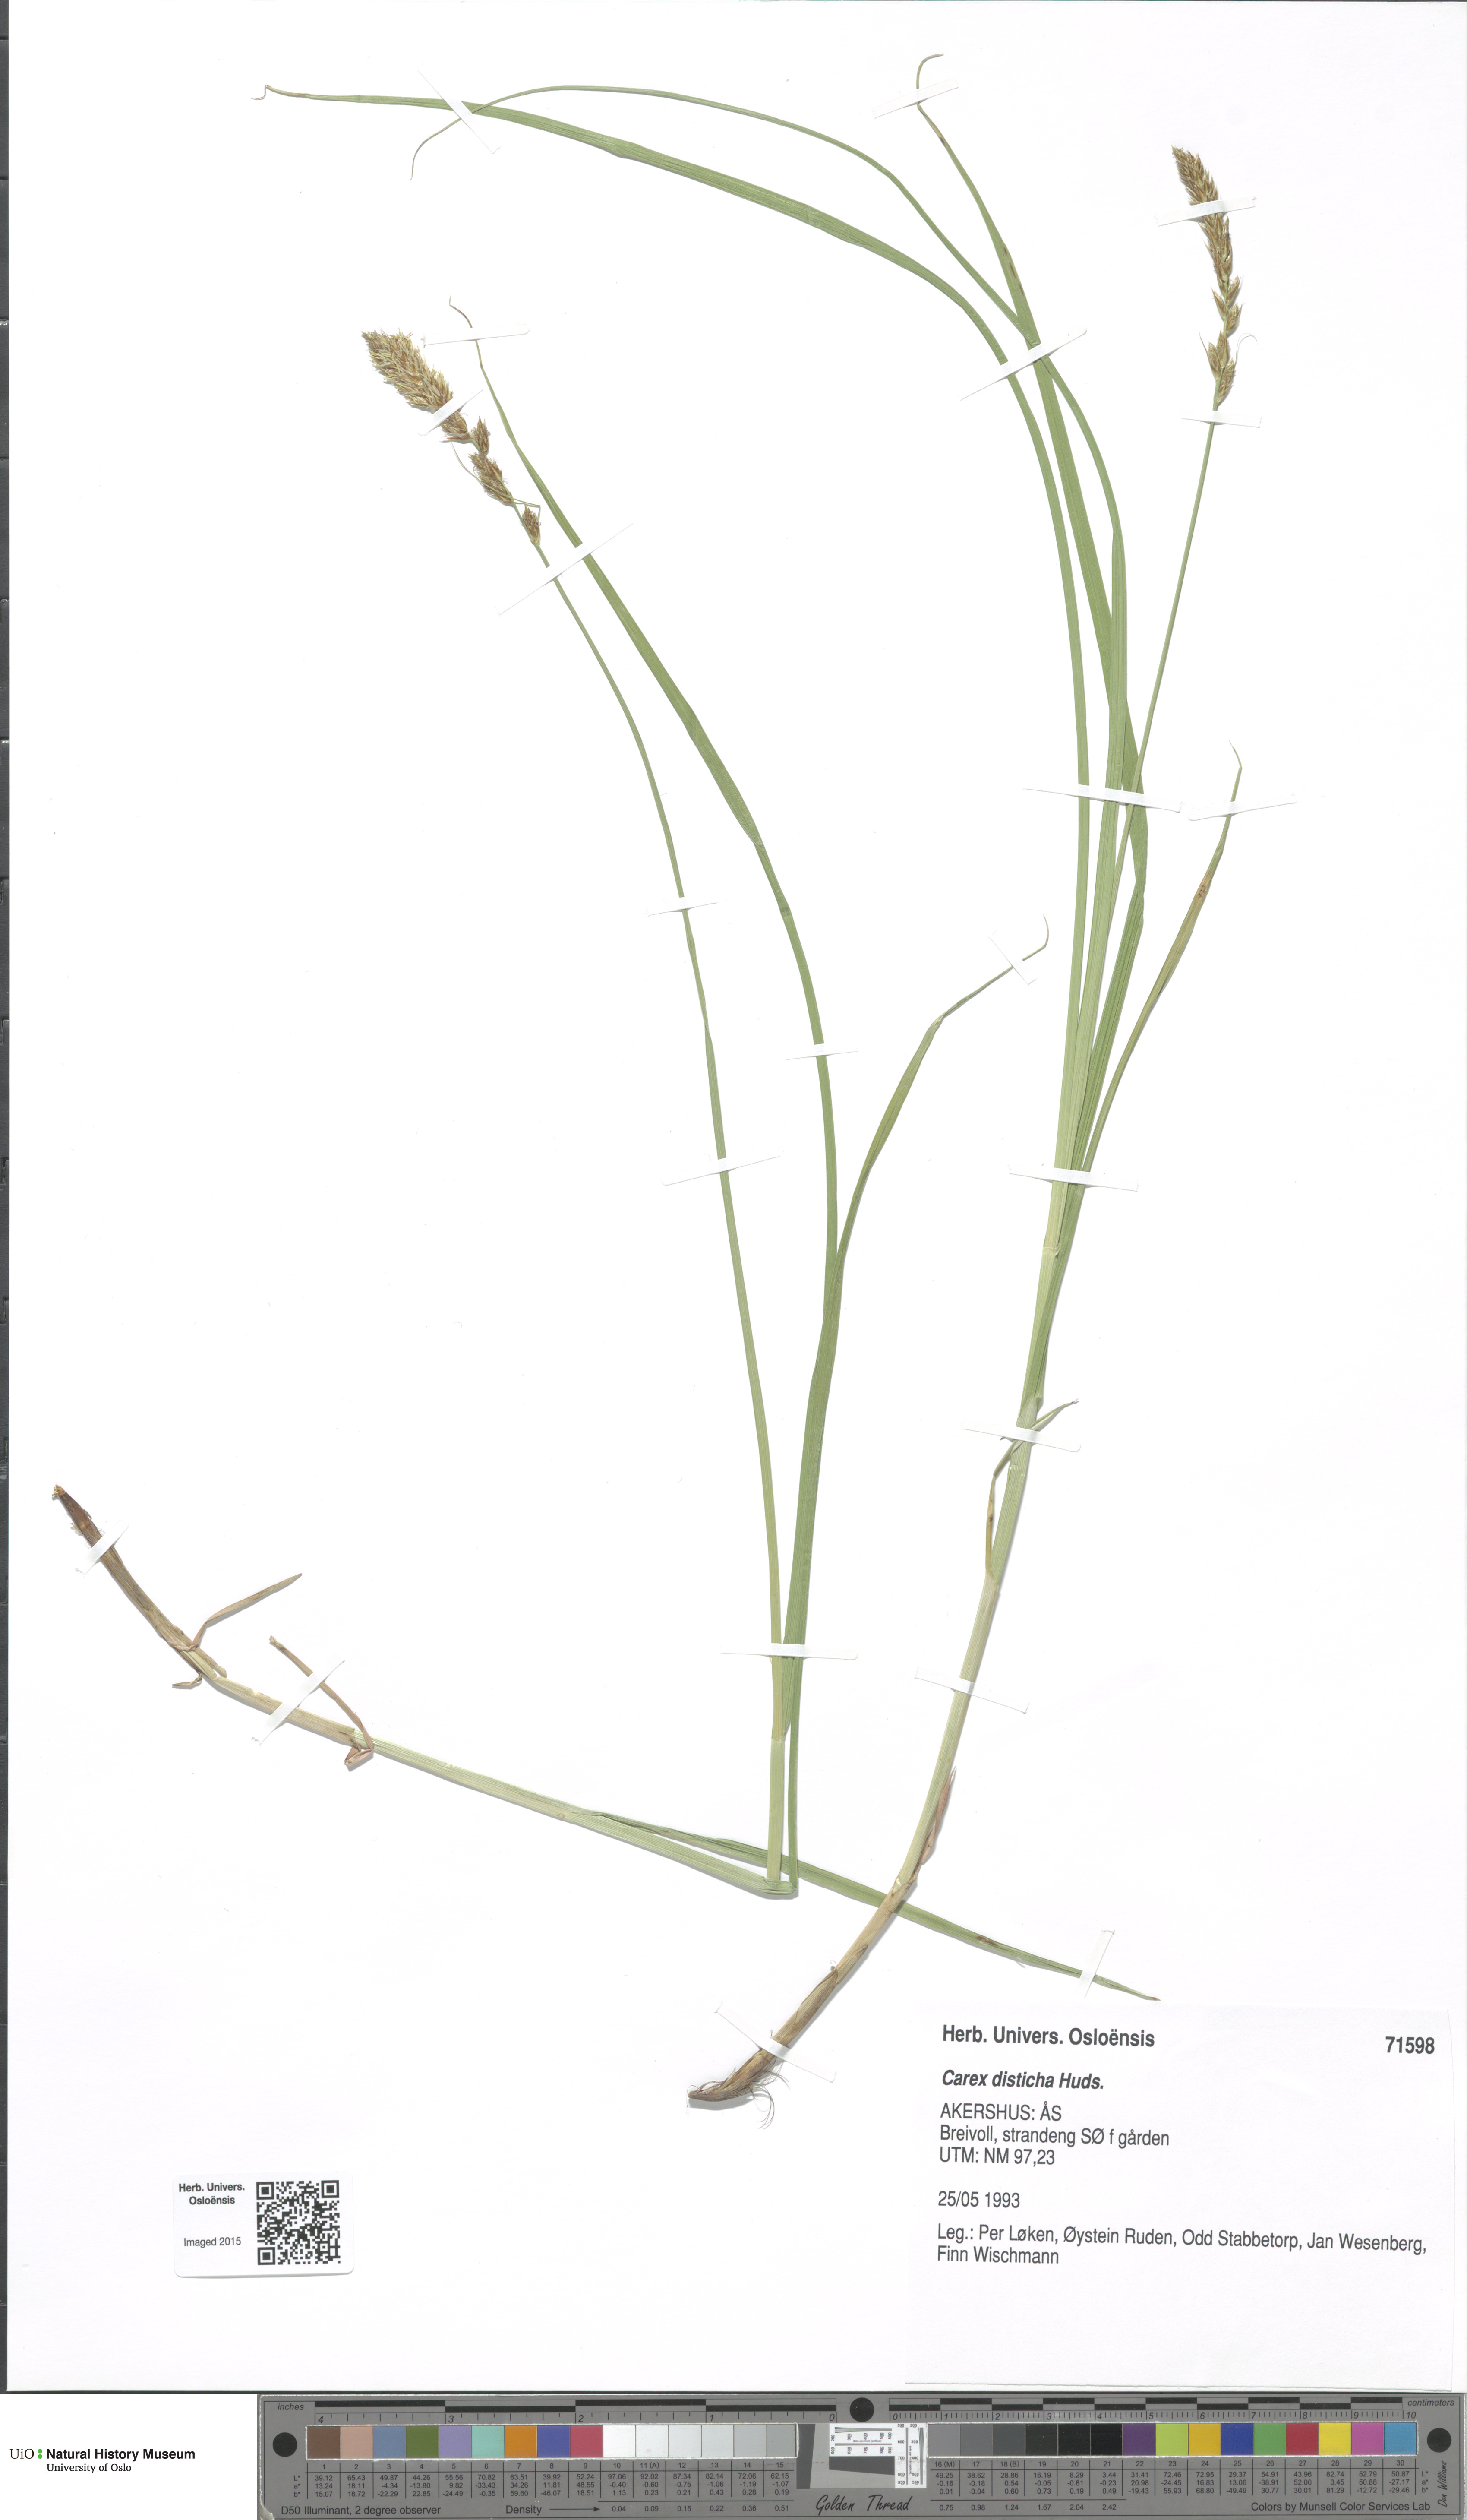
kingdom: Plantae
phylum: Tracheophyta
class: Liliopsida
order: Poales
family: Cyperaceae
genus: Carex
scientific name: Carex disticha
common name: Brown sedge
